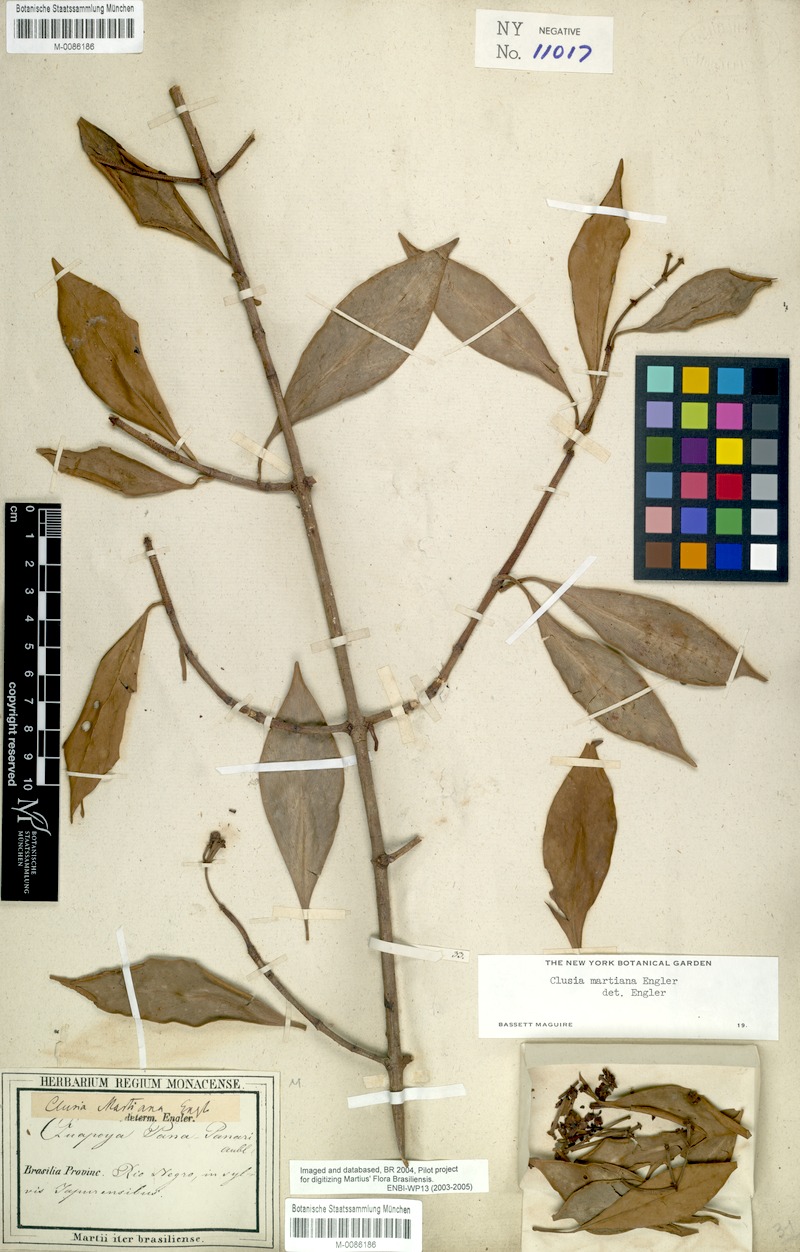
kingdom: Plantae
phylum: Tracheophyta
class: Magnoliopsida
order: Malpighiales
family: Clusiaceae
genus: Clusia
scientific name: Clusia martiana
